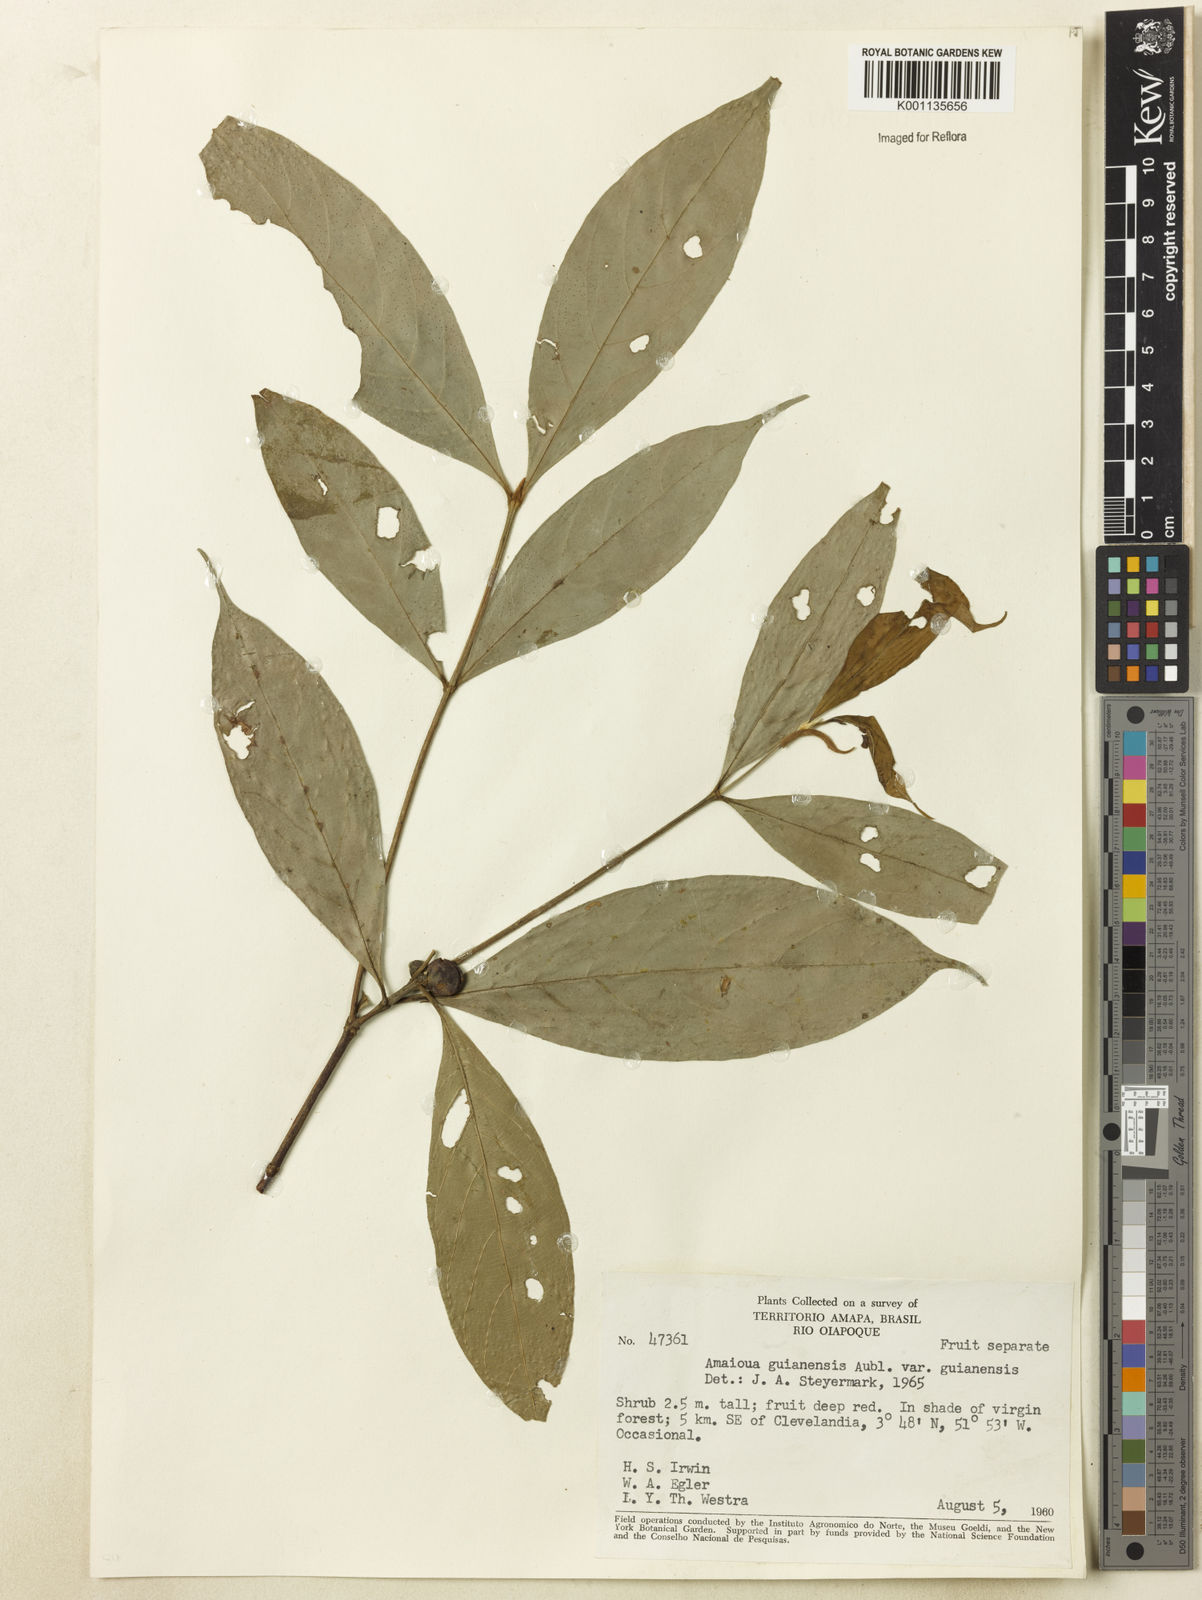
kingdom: Plantae
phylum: Tracheophyta
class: Magnoliopsida
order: Gentianales
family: Rubiaceae
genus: Amaioua
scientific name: Amaioua guianensis
